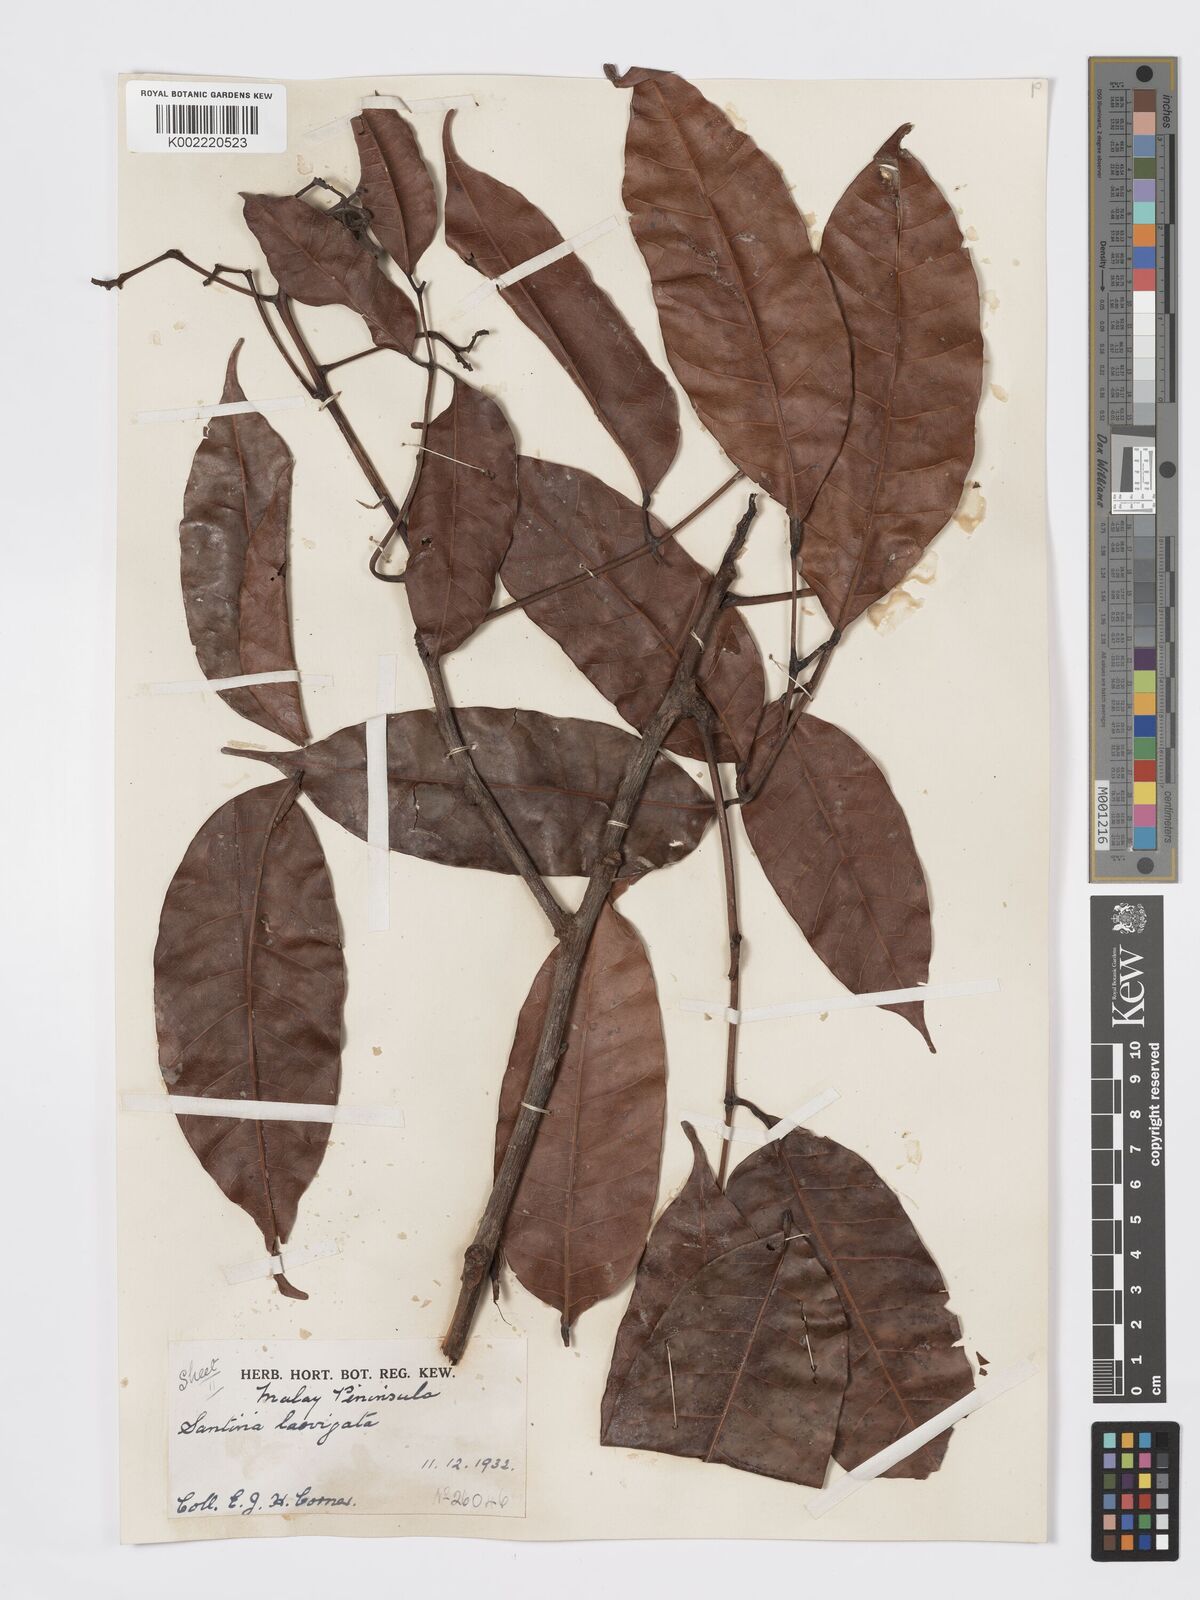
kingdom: Plantae
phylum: Tracheophyta
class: Magnoliopsida
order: Sapindales
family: Burseraceae
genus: Santiria
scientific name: Santiria laevigata
